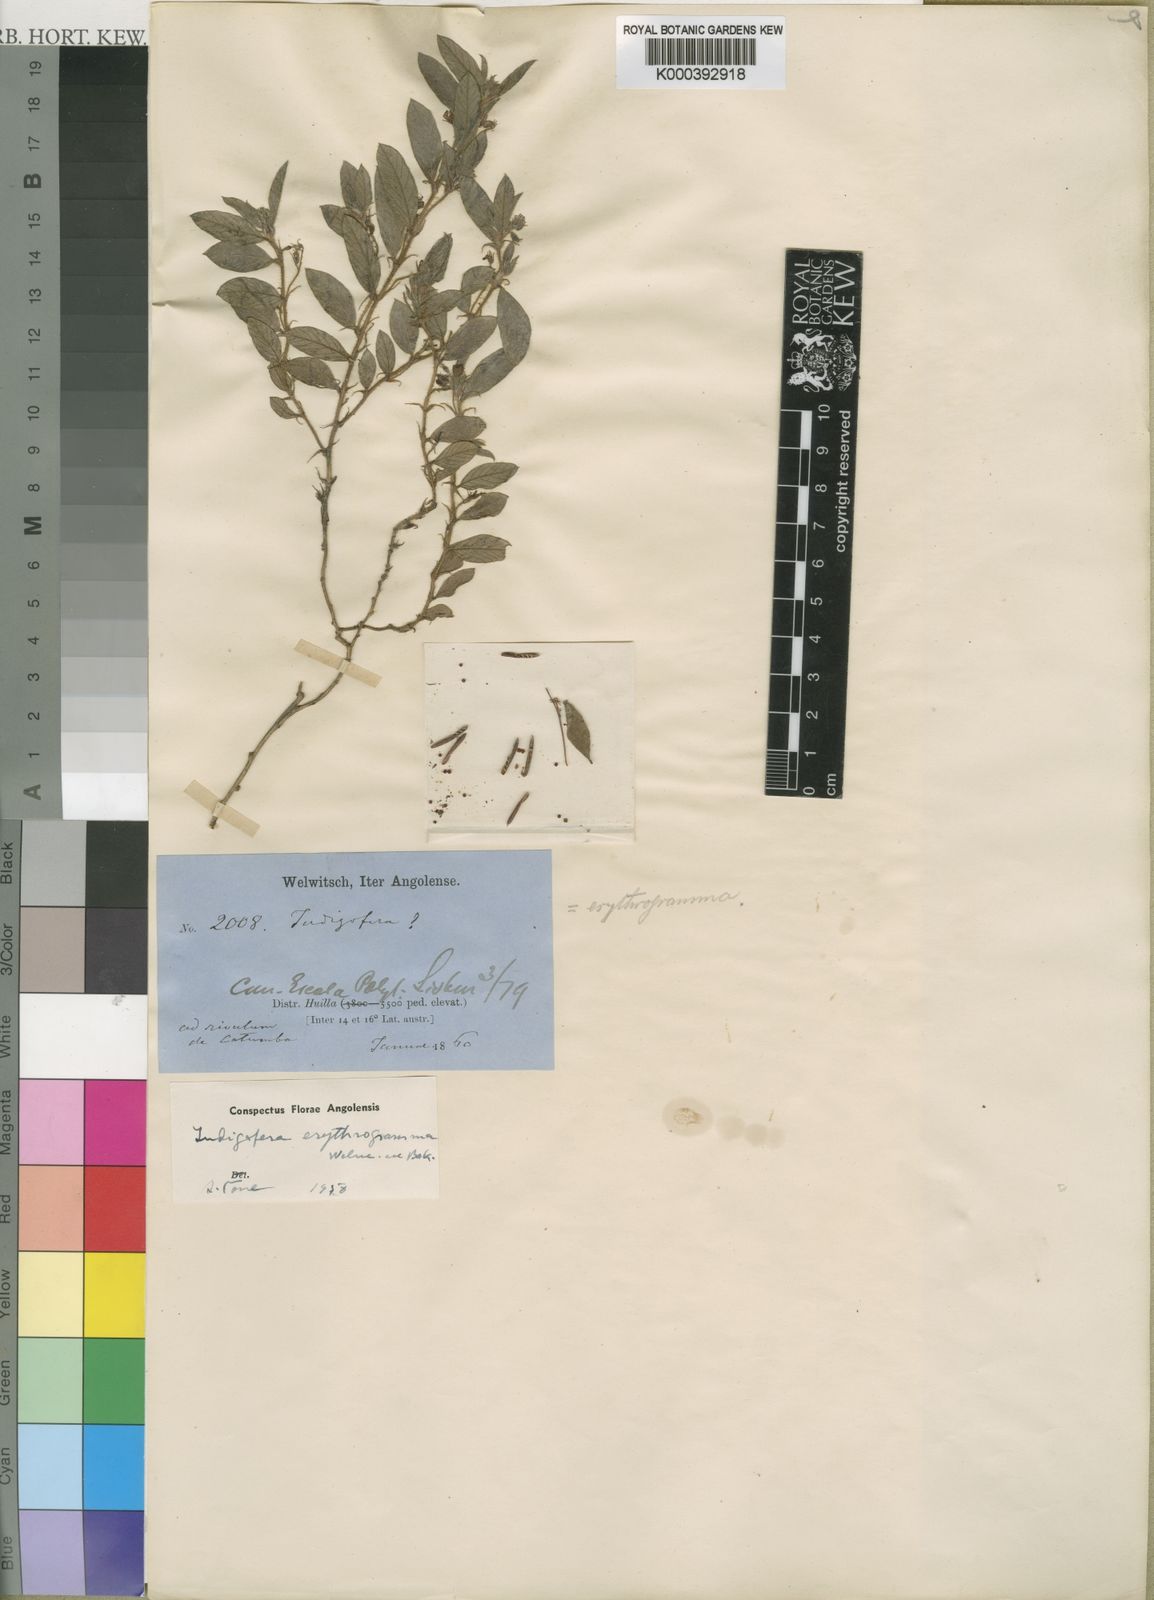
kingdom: Plantae
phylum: Tracheophyta
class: Magnoliopsida
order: Fabales
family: Fabaceae
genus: Indigofera
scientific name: Indigofera erythrogramma
